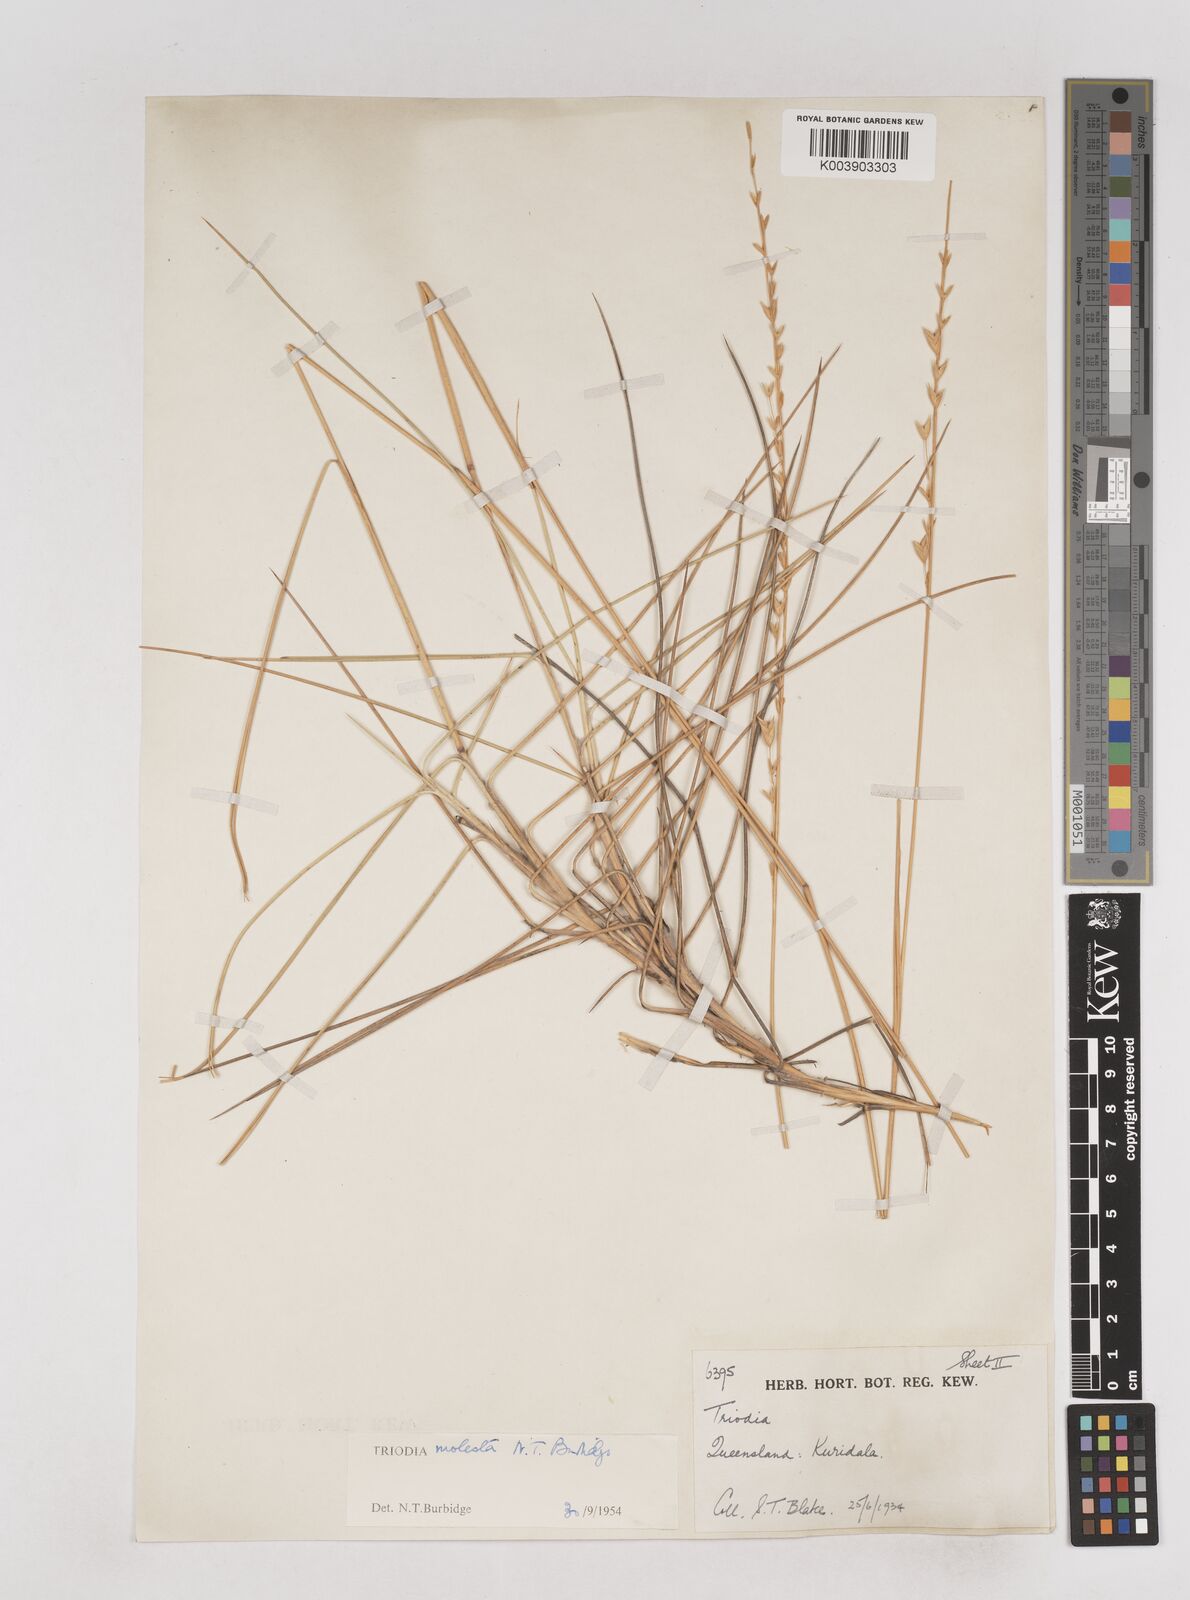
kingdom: Plantae
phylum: Tracheophyta
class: Liliopsida
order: Poales
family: Poaceae
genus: Triodia
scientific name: Triodia molesta
